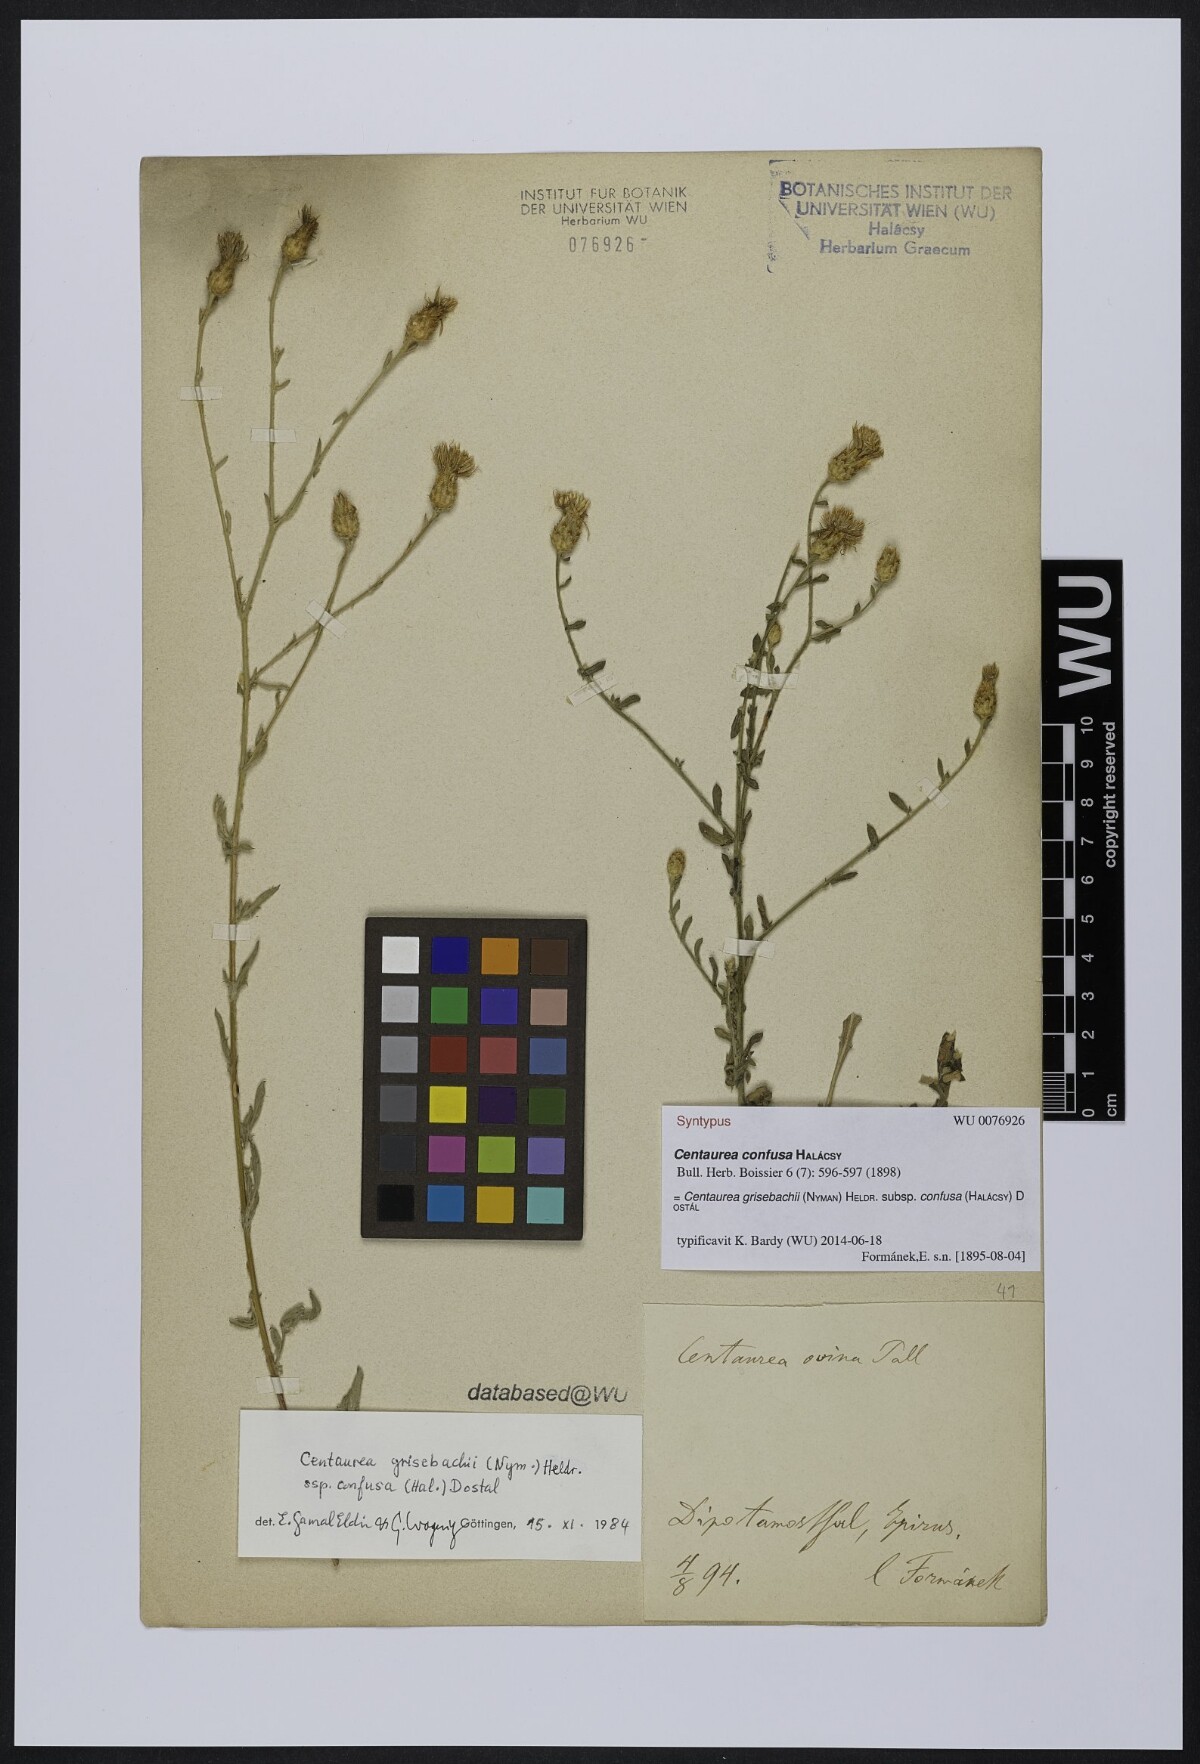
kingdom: Plantae
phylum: Tracheophyta
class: Magnoliopsida
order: Asterales
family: Asteraceae
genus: Centaurea
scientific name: Centaurea grisebachii
